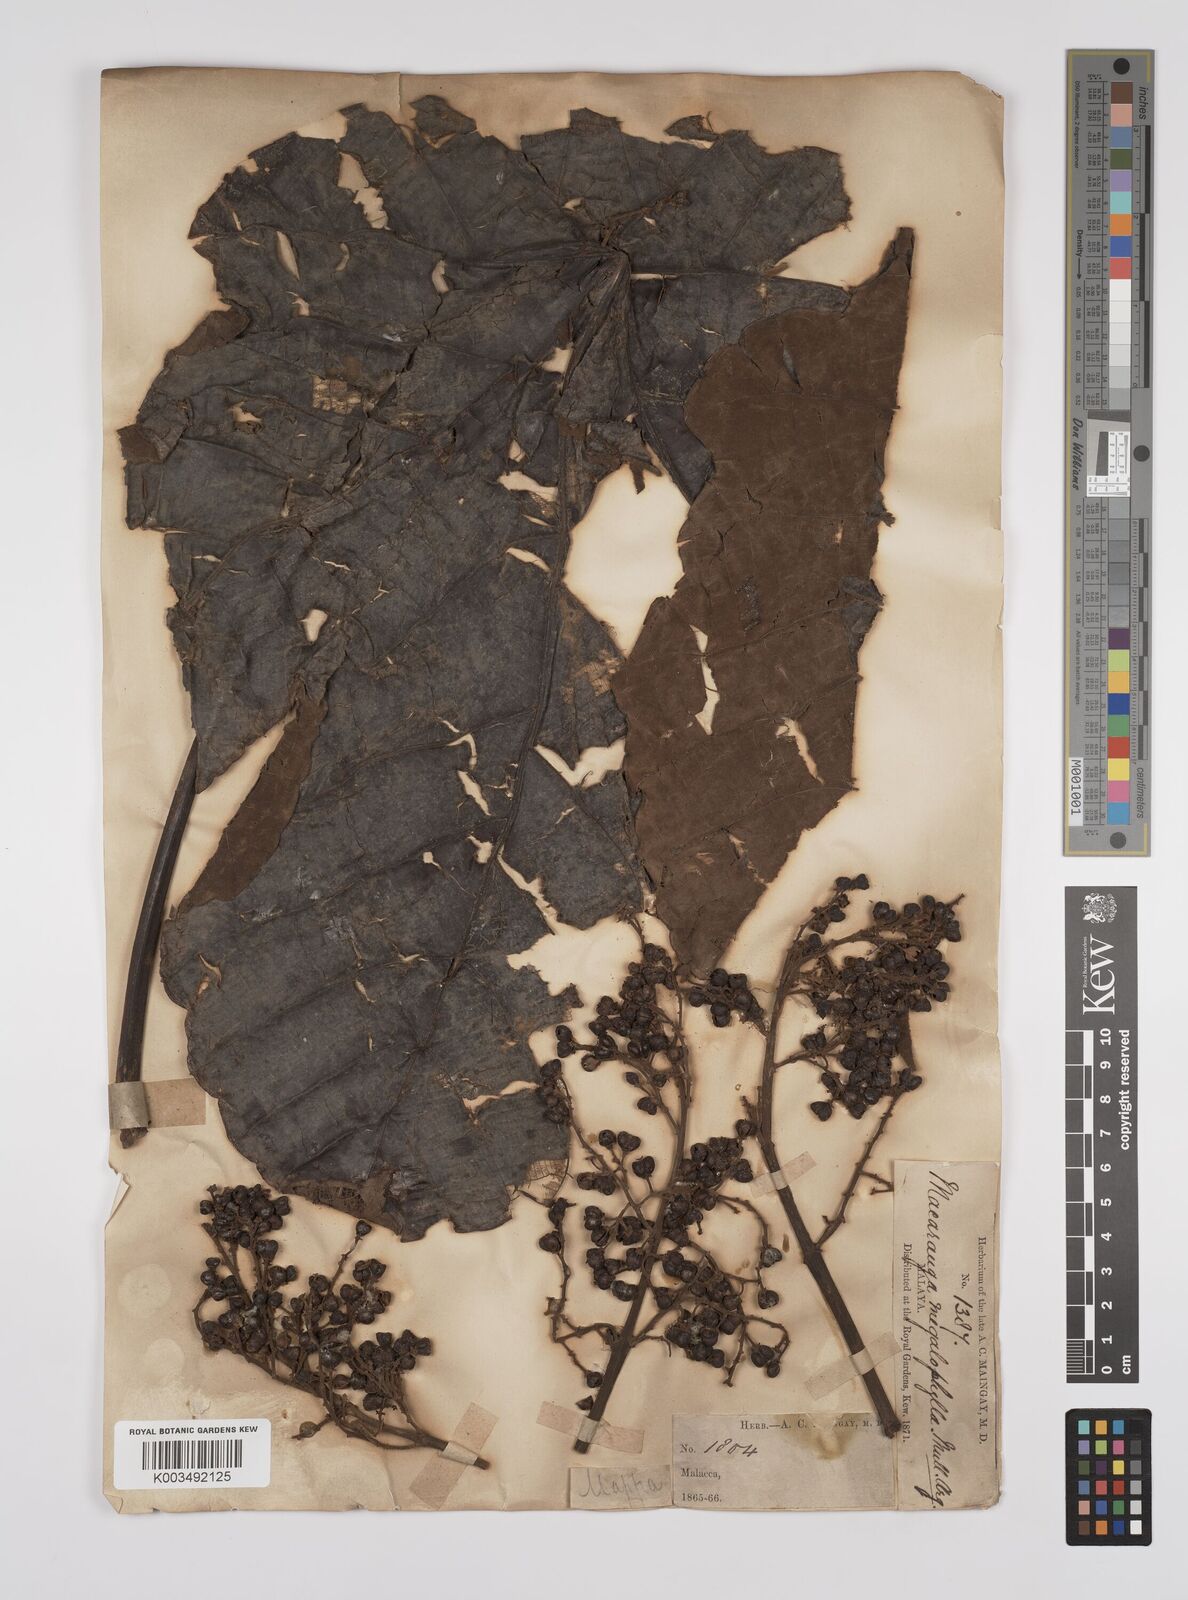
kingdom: Plantae
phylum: Tracheophyta
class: Magnoliopsida
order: Malpighiales
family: Euphorbiaceae
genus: Macaranga
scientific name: Macaranga gigantea
